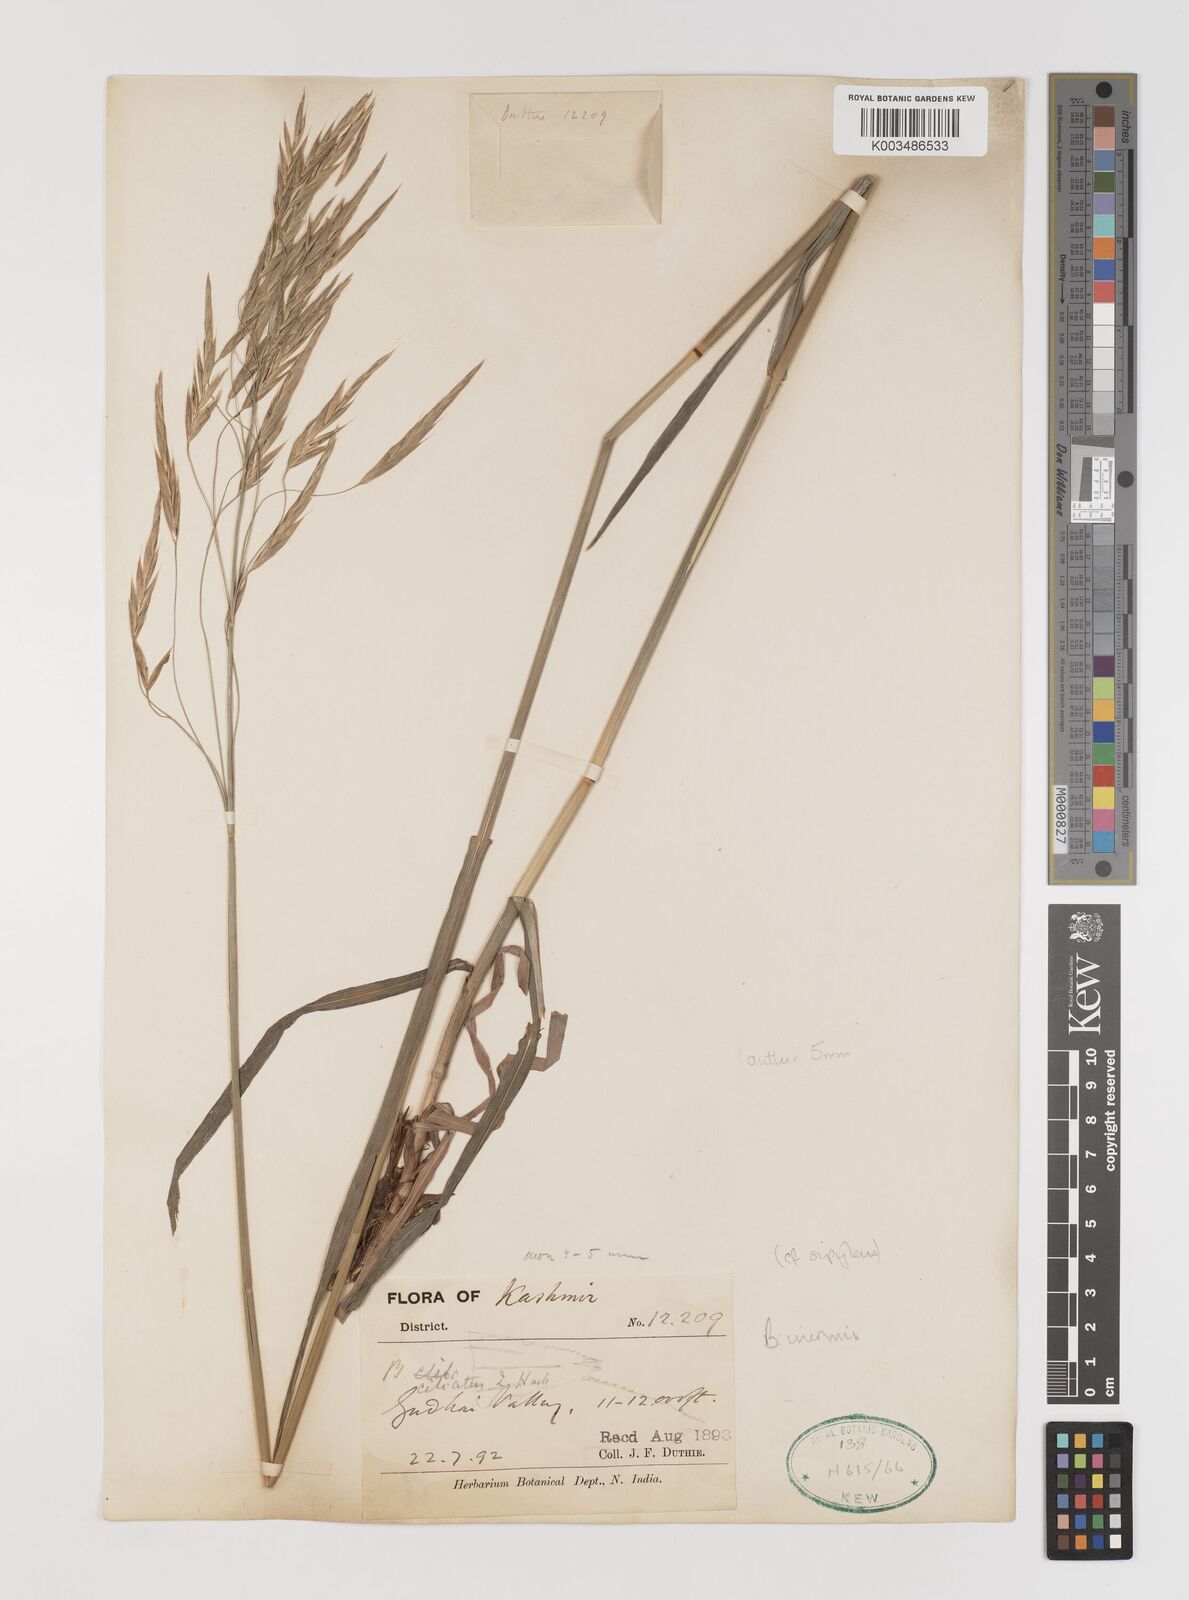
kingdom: Plantae
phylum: Tracheophyta
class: Liliopsida
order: Poales
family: Poaceae
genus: Bromus
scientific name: Bromus inermis
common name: Smooth brome
